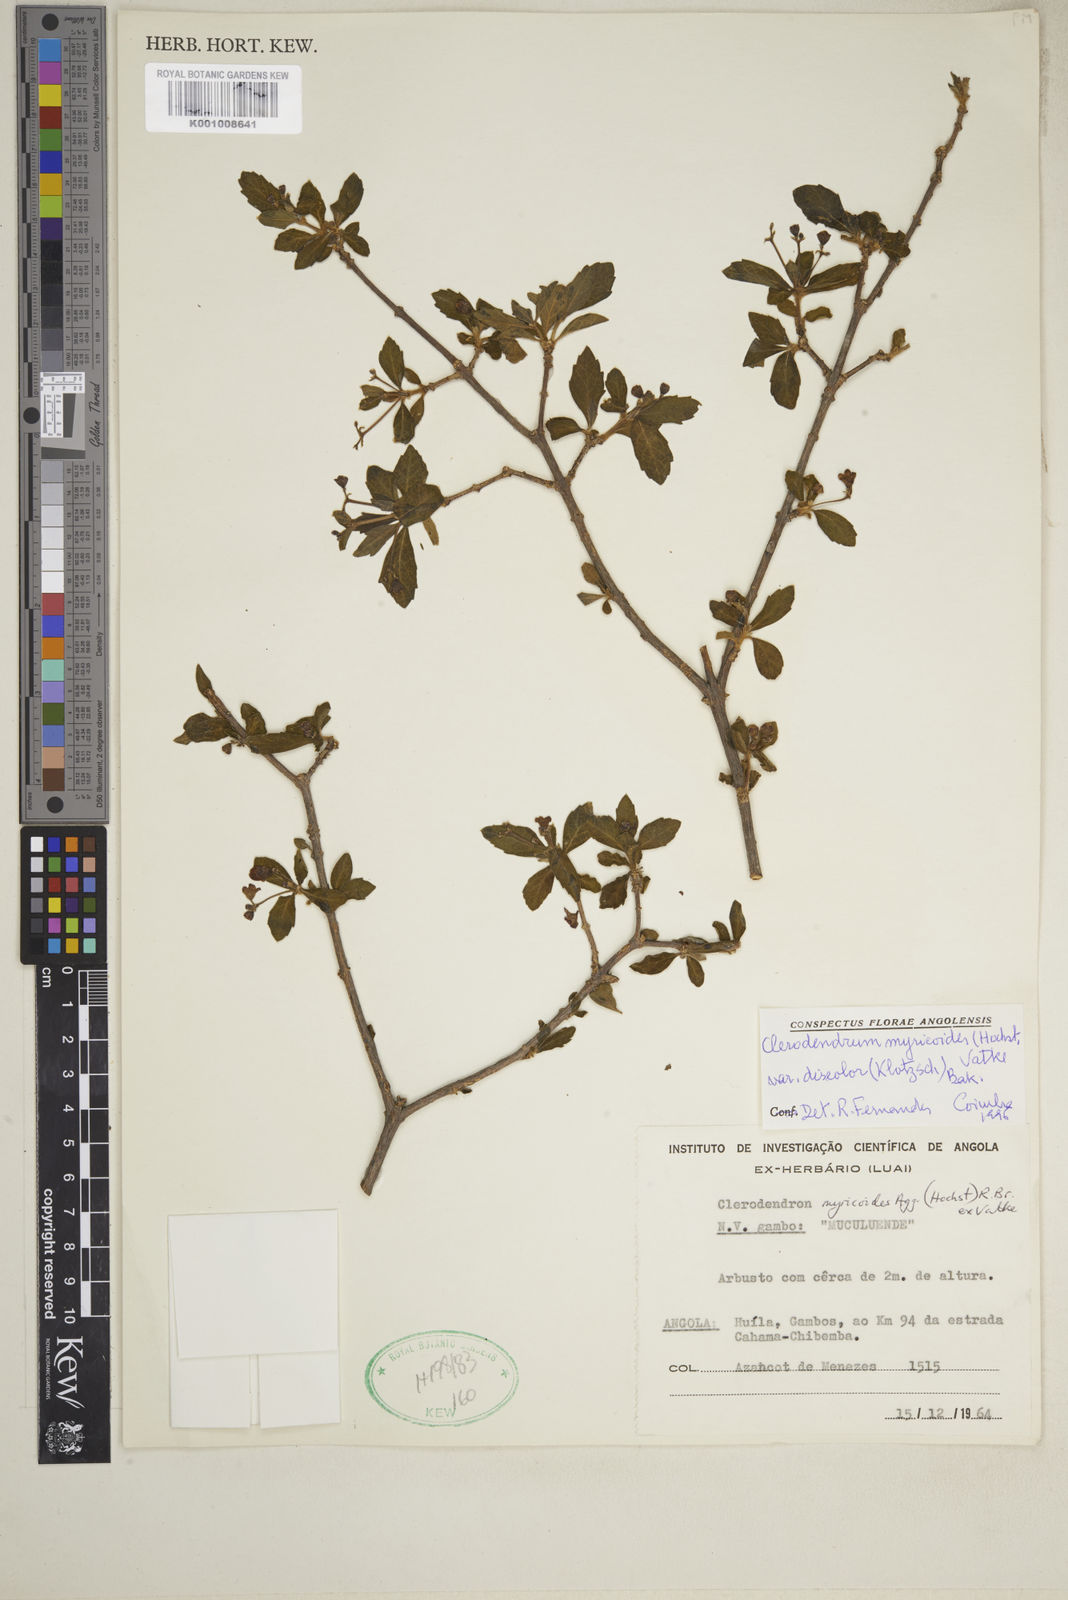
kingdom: Plantae
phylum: Tracheophyta
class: Magnoliopsida
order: Lamiales
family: Lamiaceae
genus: Rotheca
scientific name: Rotheca myricoides
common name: Cats-whiskers
